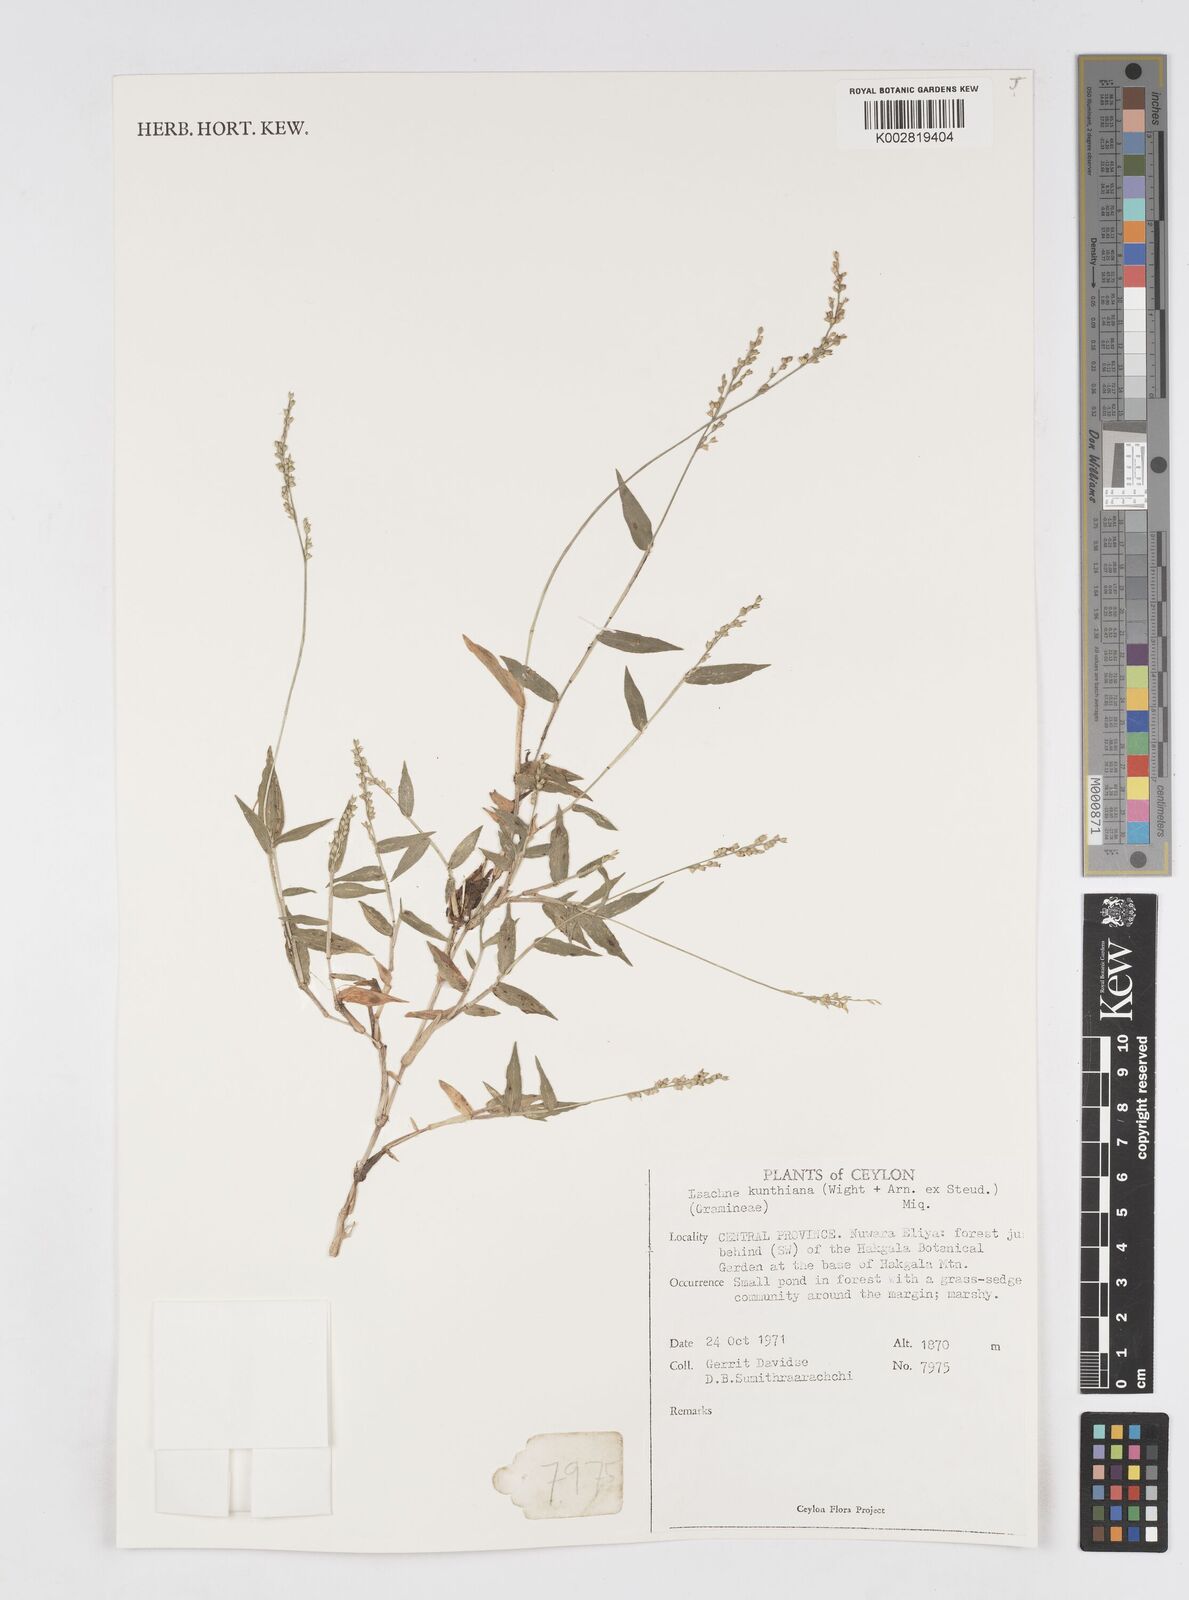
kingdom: Plantae
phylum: Tracheophyta
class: Liliopsida
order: Poales
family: Poaceae
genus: Isachne
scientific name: Isachne kunthiana
